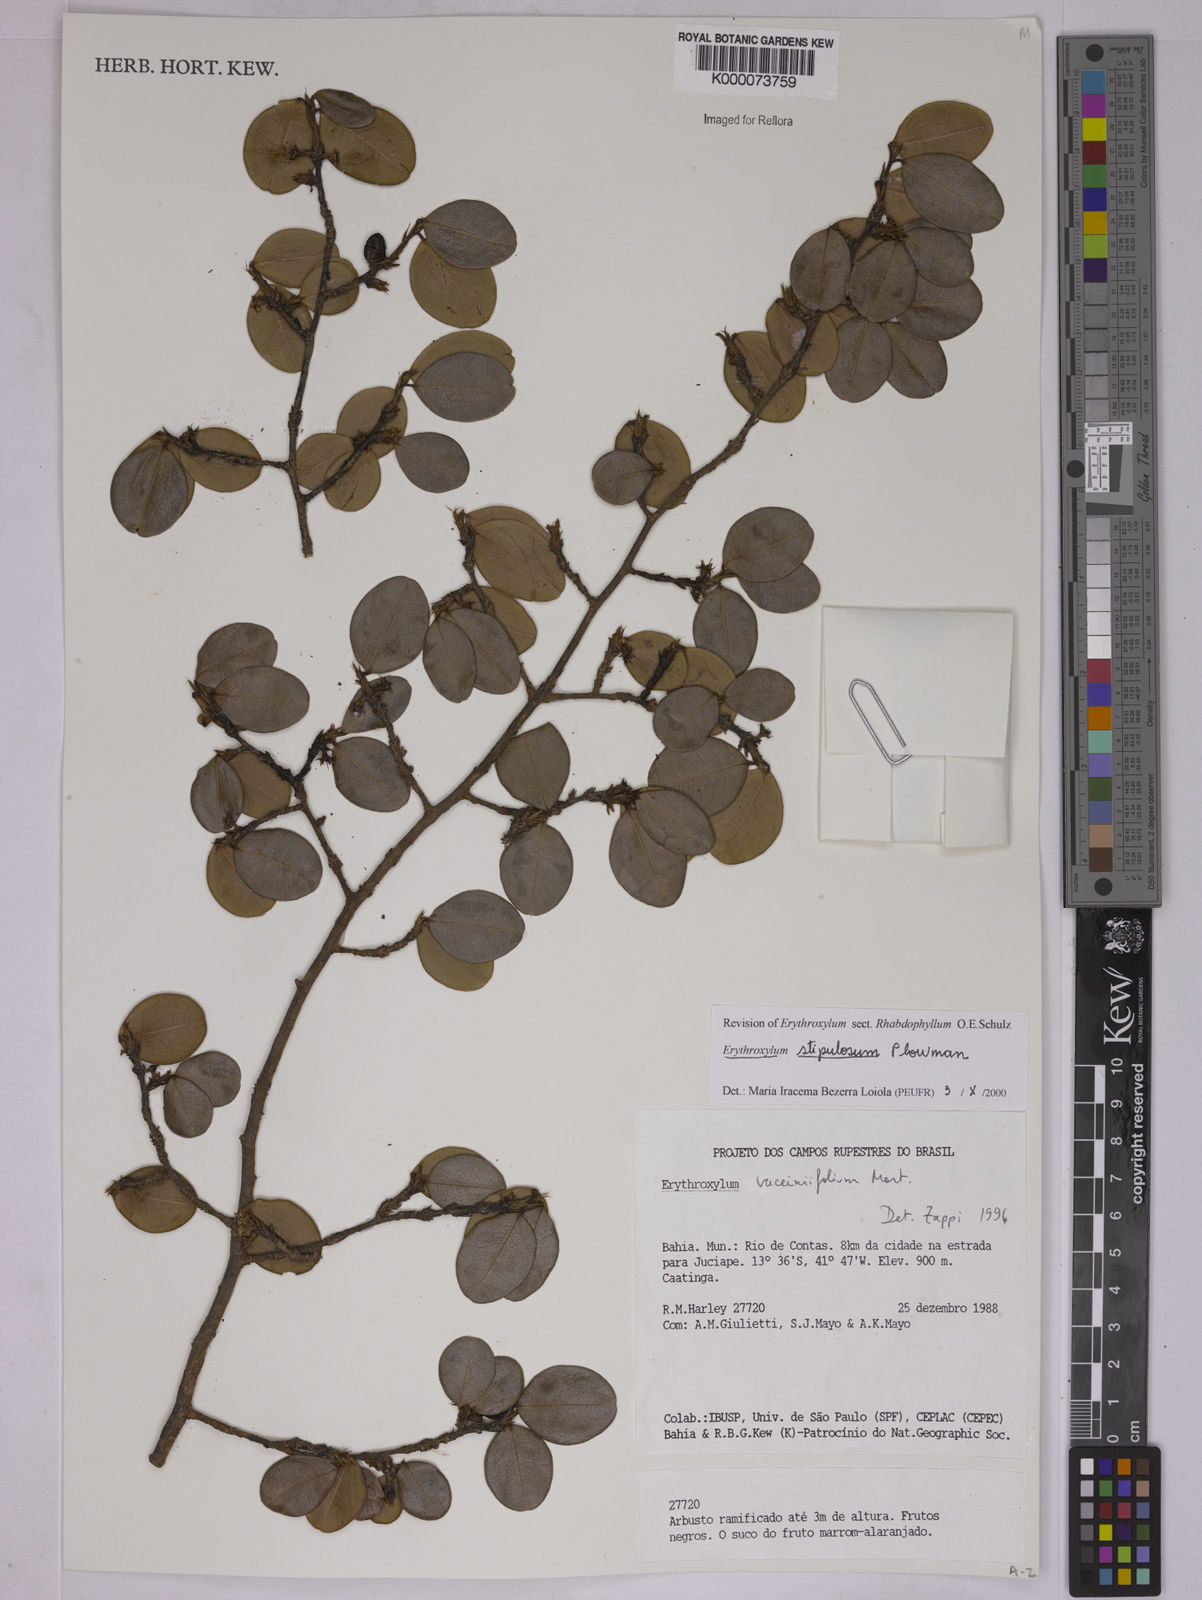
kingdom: Plantae
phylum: Tracheophyta
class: Magnoliopsida
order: Malpighiales
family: Erythroxylaceae
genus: Erythroxylum
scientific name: Erythroxylum stipulosum
